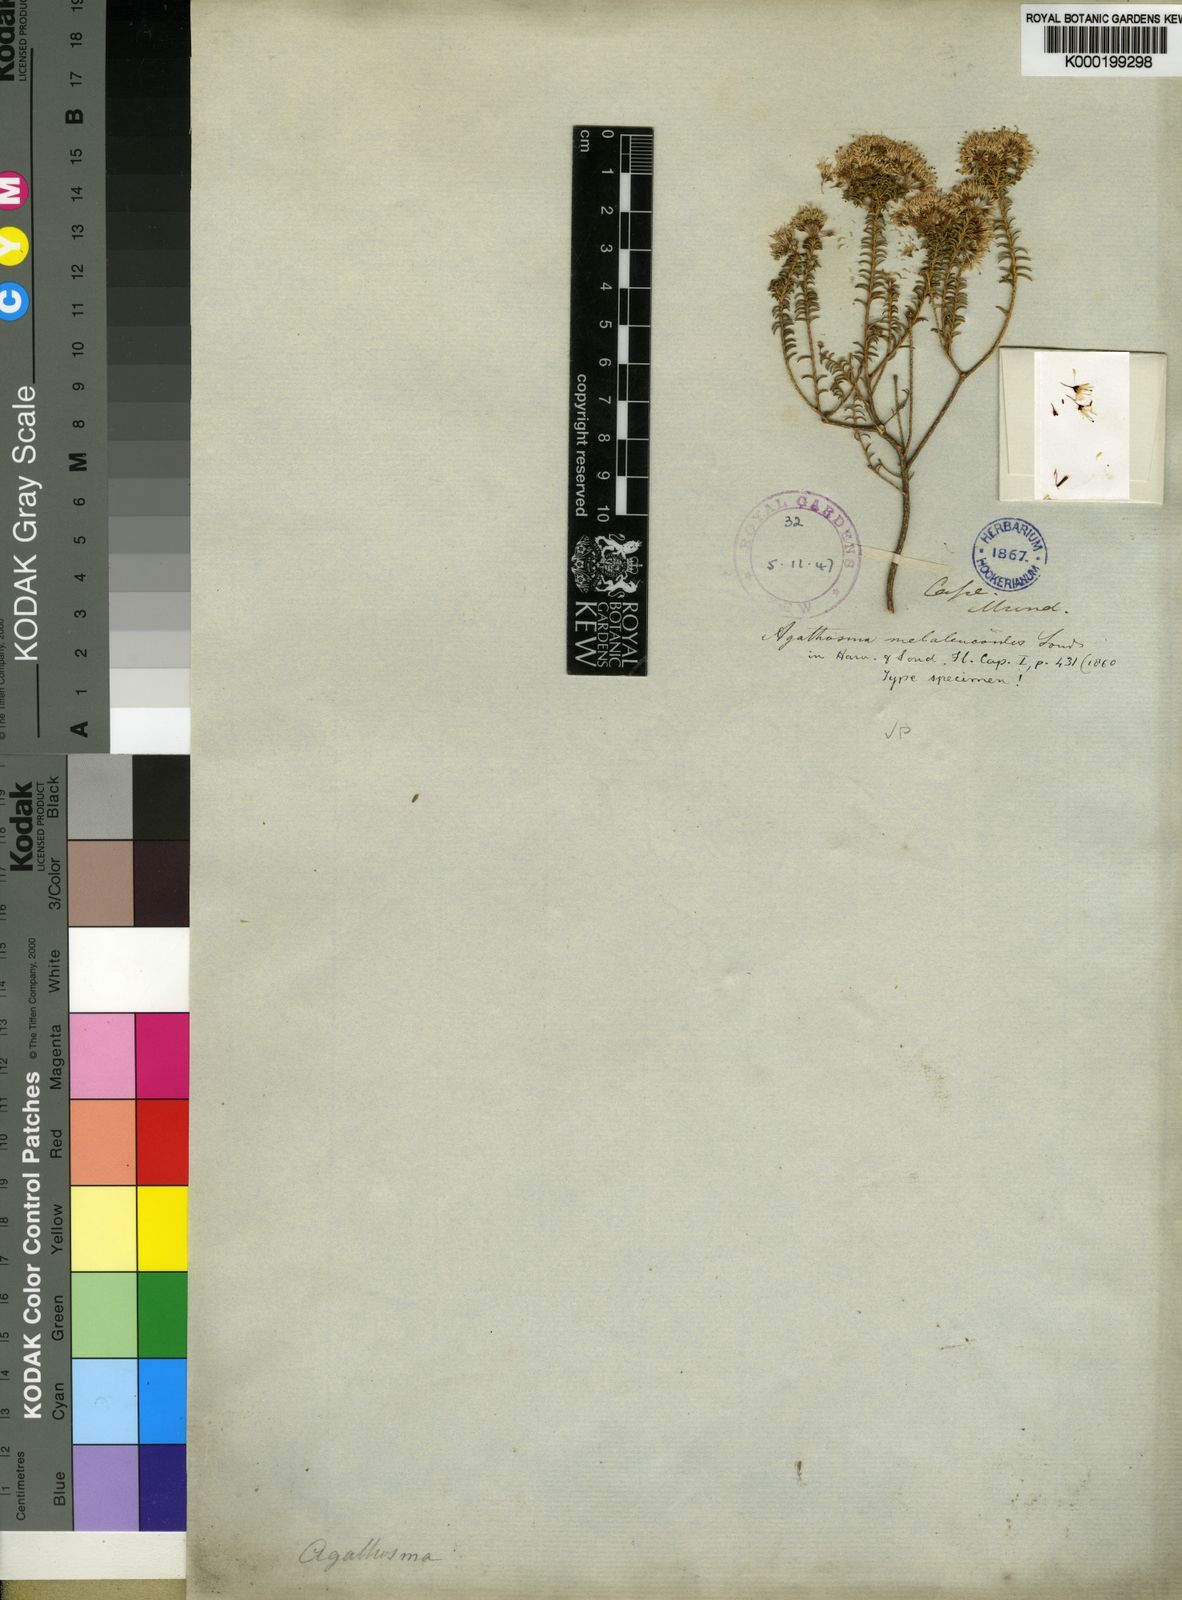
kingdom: Plantae
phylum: Tracheophyta
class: Magnoliopsida
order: Sapindales
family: Rutaceae
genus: Agathosma
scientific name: Agathosma cerefolia
